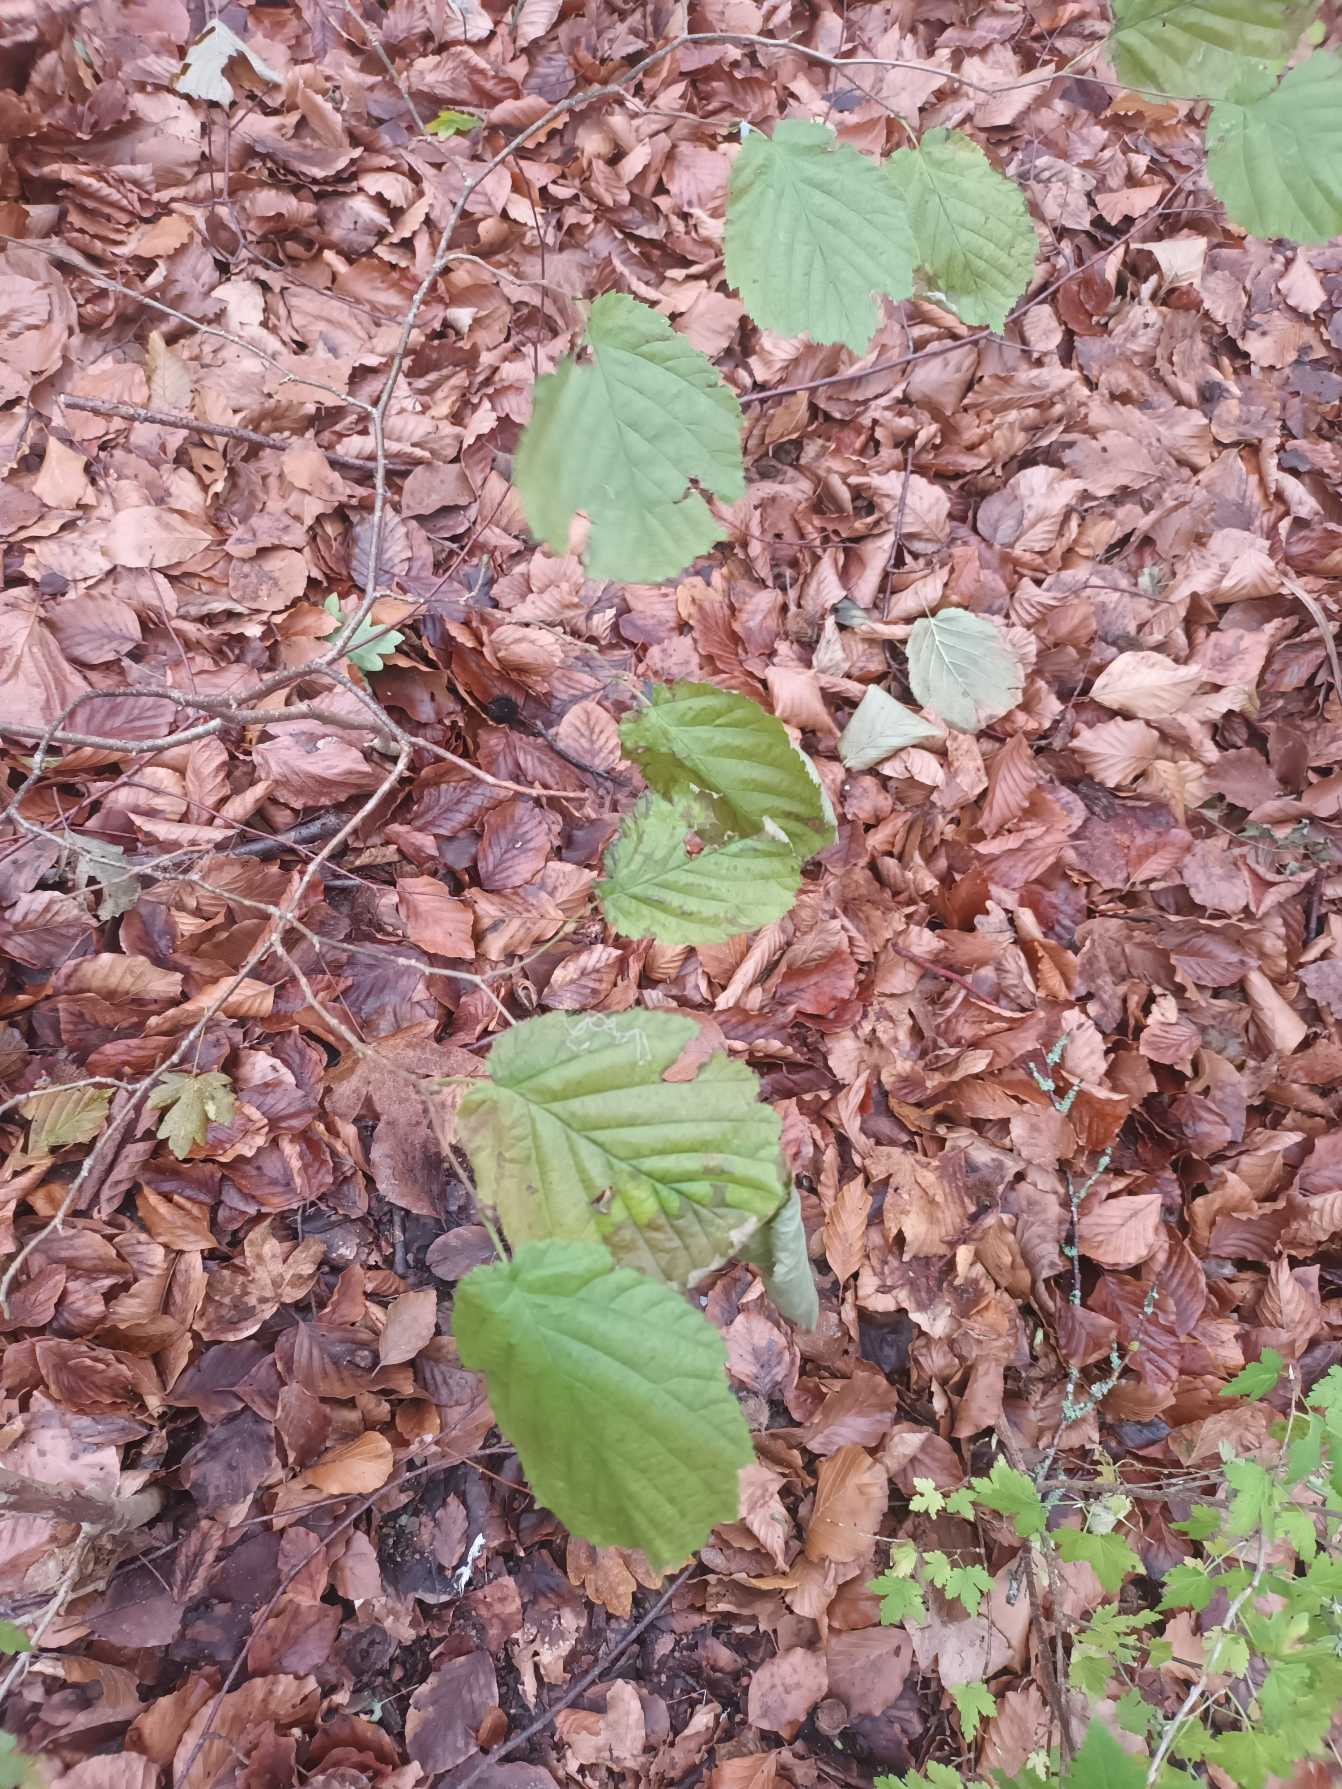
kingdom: Plantae
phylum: Tracheophyta
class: Magnoliopsida
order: Fagales
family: Betulaceae
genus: Corylus
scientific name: Corylus avellana
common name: Hassel
